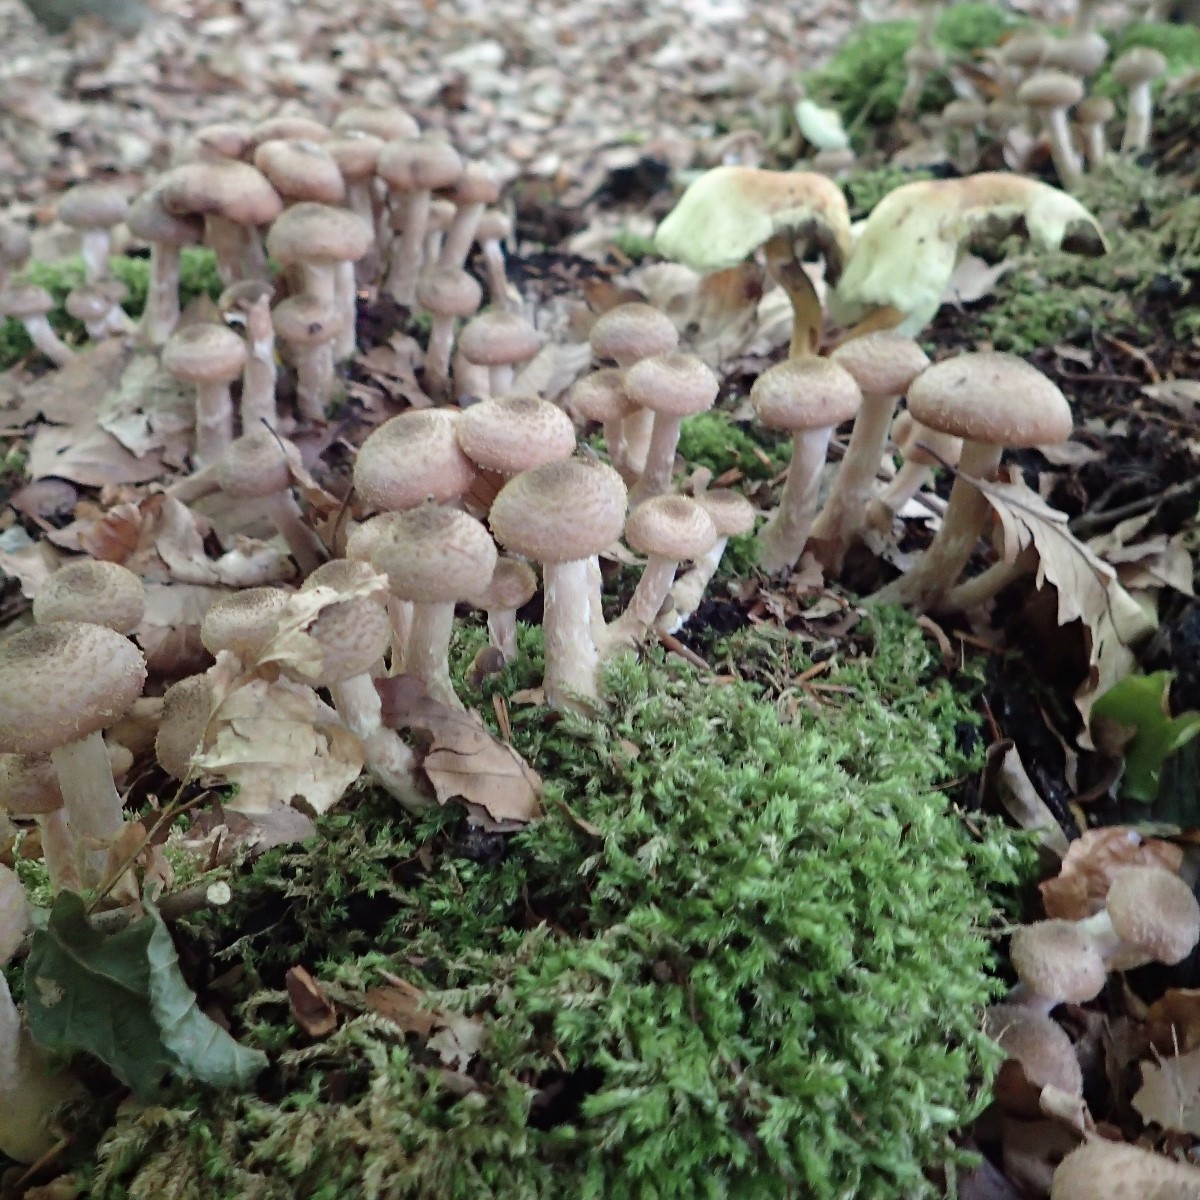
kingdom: Fungi
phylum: Basidiomycota
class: Agaricomycetes
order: Agaricales
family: Physalacriaceae
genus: Armillaria
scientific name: Armillaria lutea
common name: køllestokket honningsvamp
